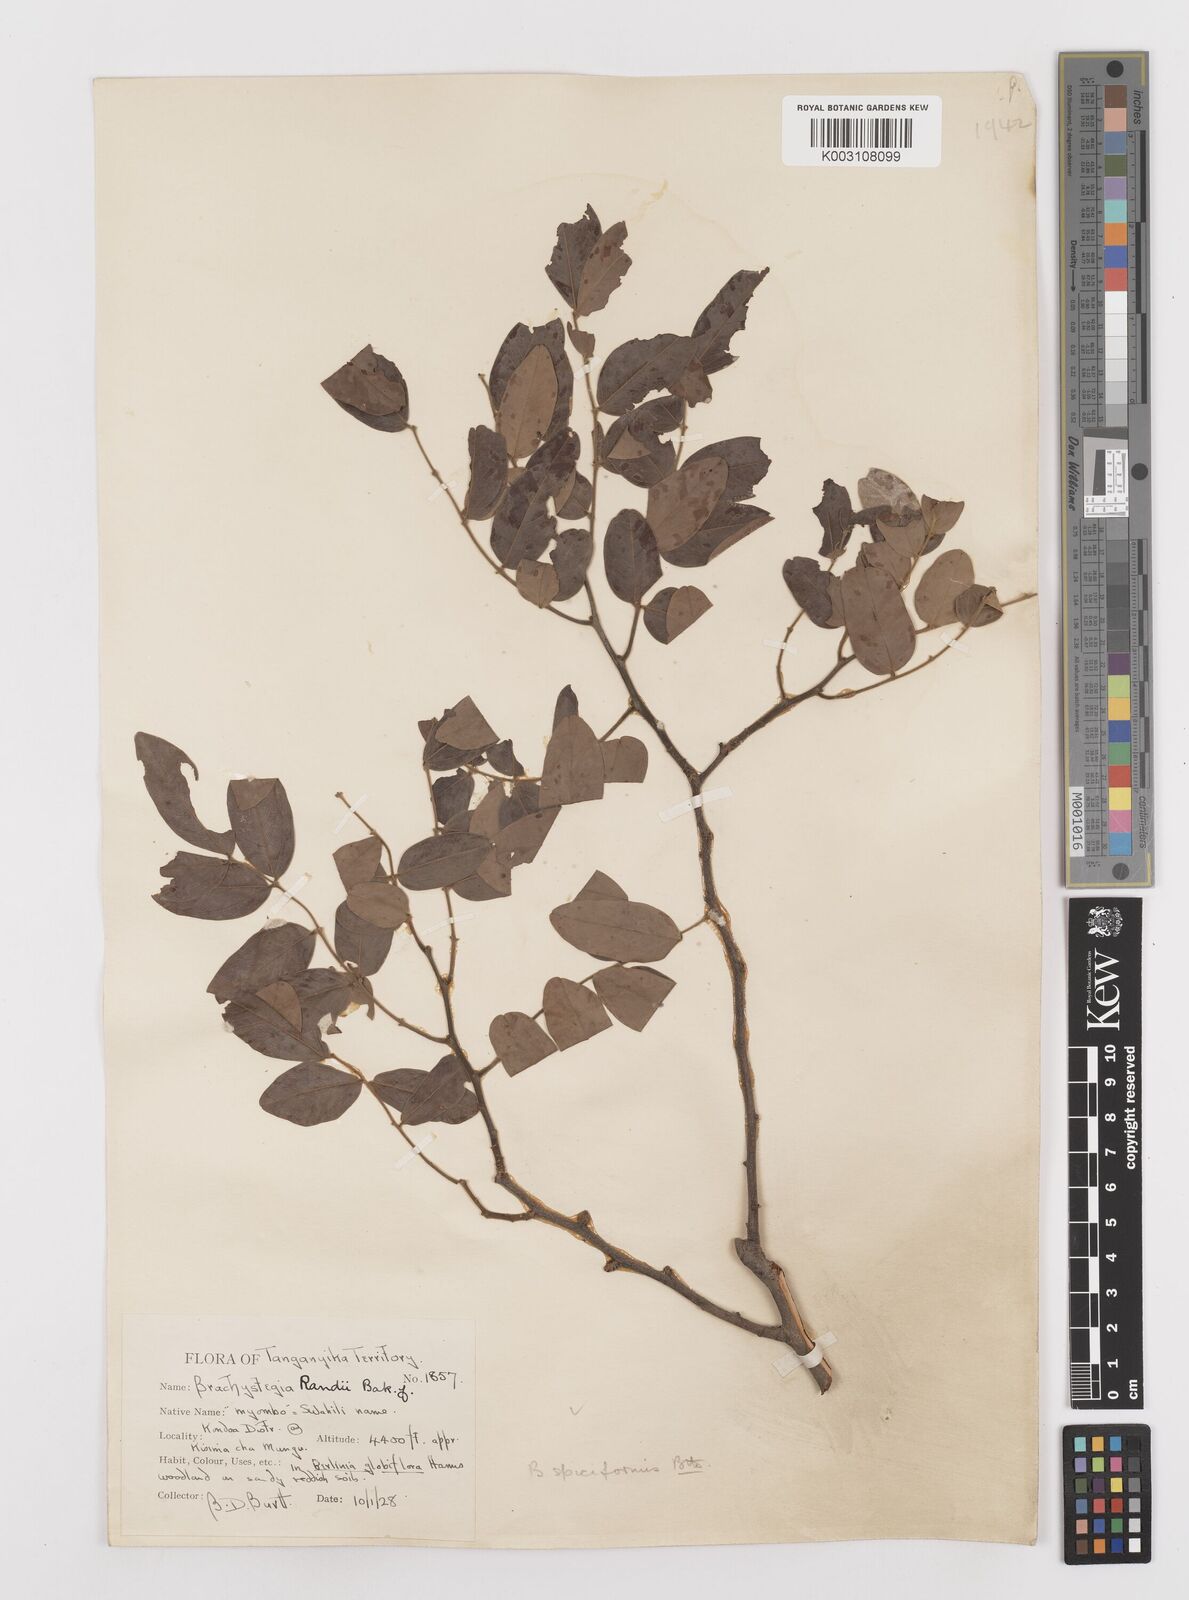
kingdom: Plantae
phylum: Tracheophyta
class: Magnoliopsida
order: Fabales
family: Fabaceae
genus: Brachystegia
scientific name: Brachystegia spiciformis
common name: Zebrawood
